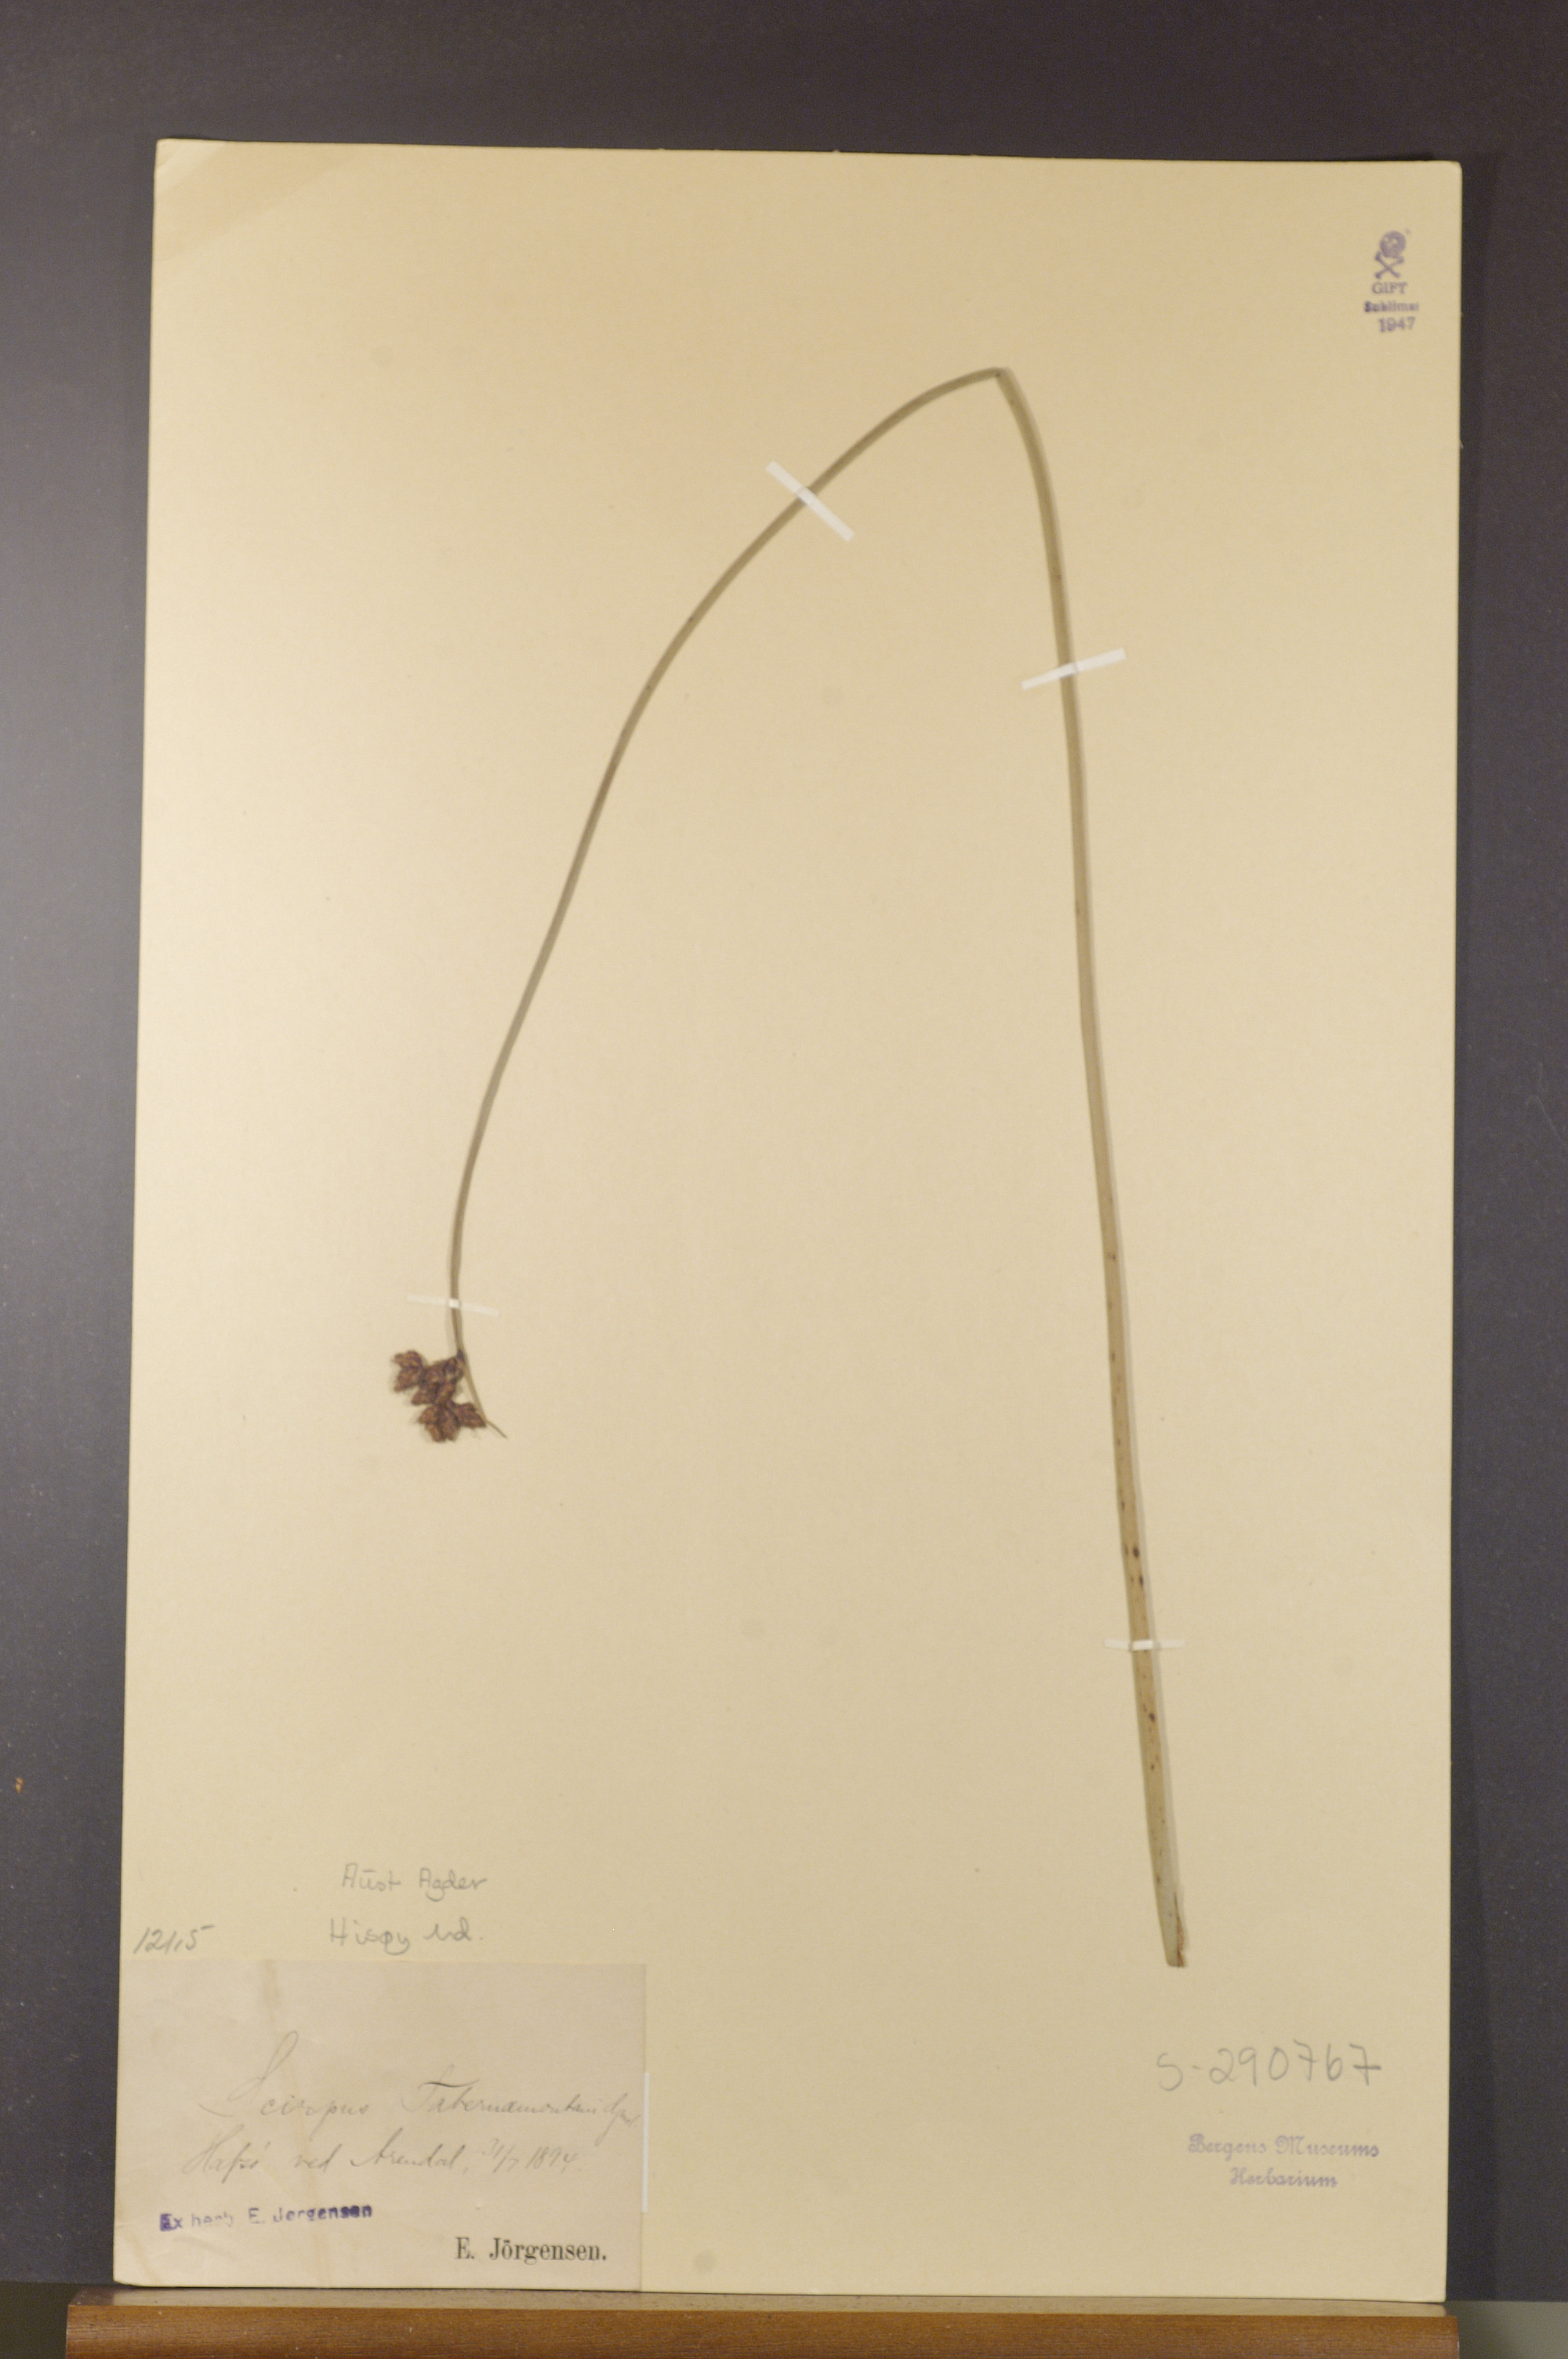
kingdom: Plantae
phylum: Tracheophyta
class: Liliopsida
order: Poales
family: Cyperaceae
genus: Schoenoplectus
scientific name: Schoenoplectus tabernaemontani
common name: Grey club-rush
